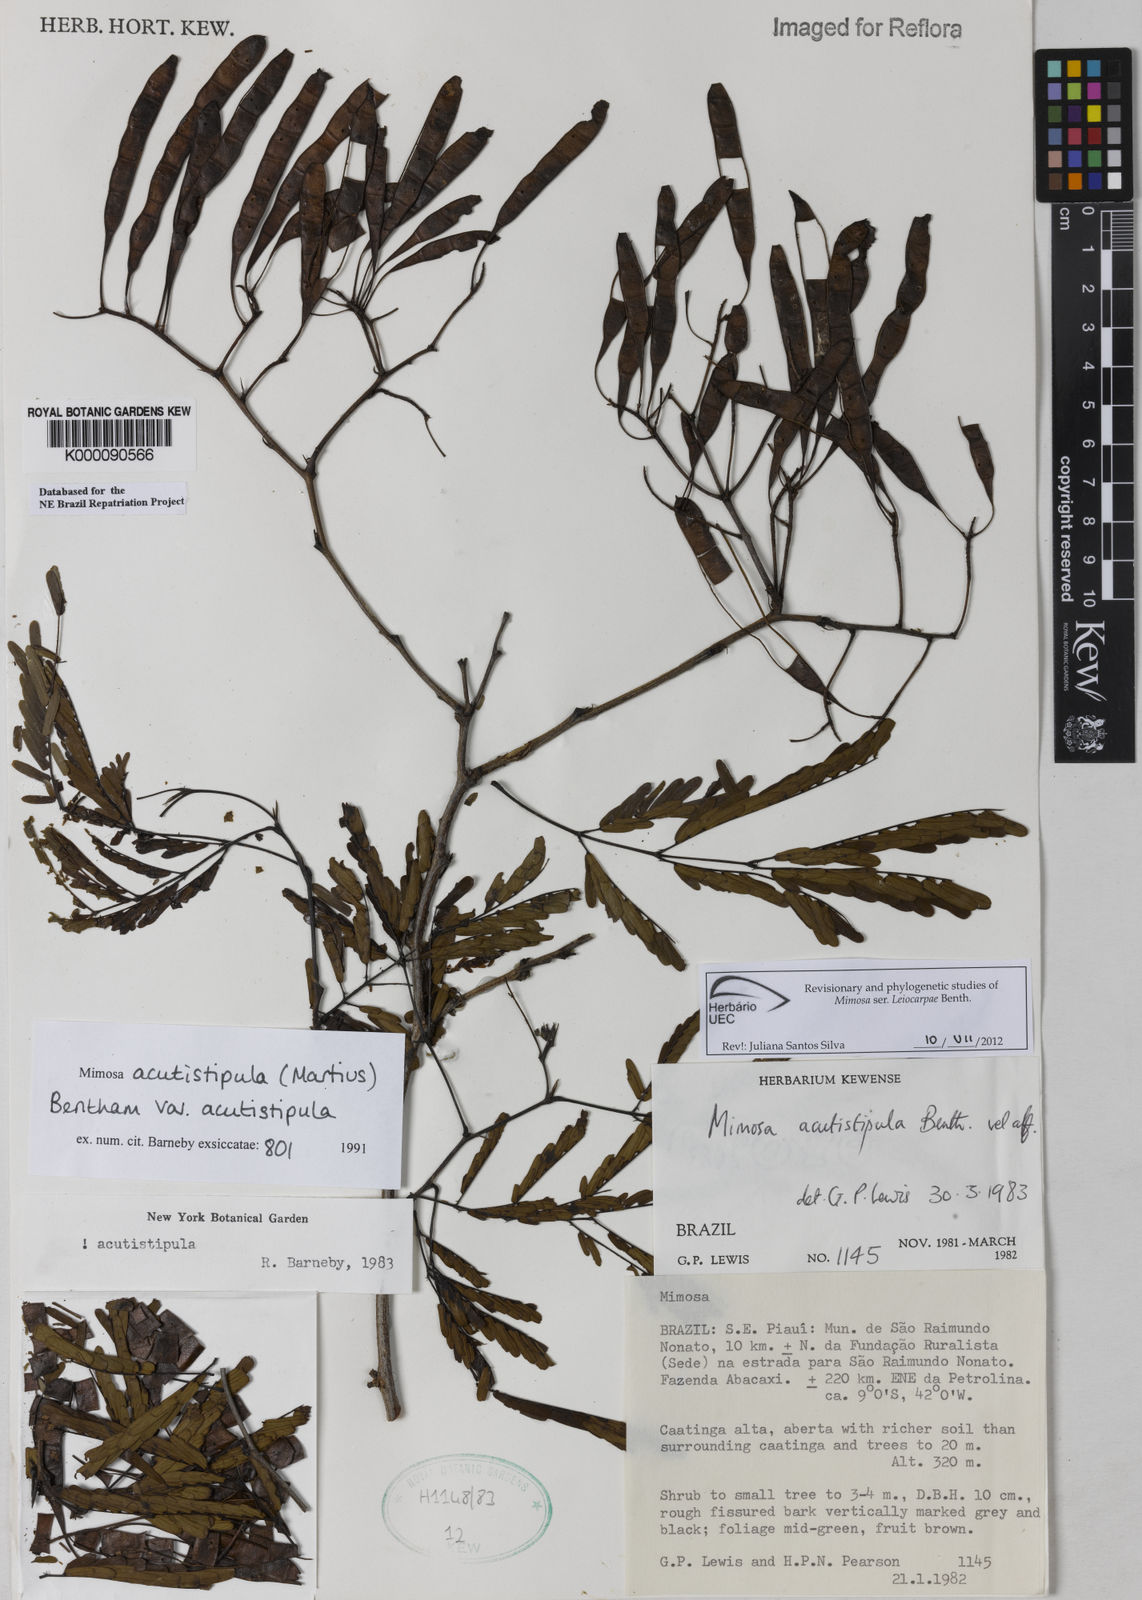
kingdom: Plantae
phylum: Tracheophyta
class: Magnoliopsida
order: Fabales
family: Fabaceae
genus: Mimosa
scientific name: Mimosa acutistipula
